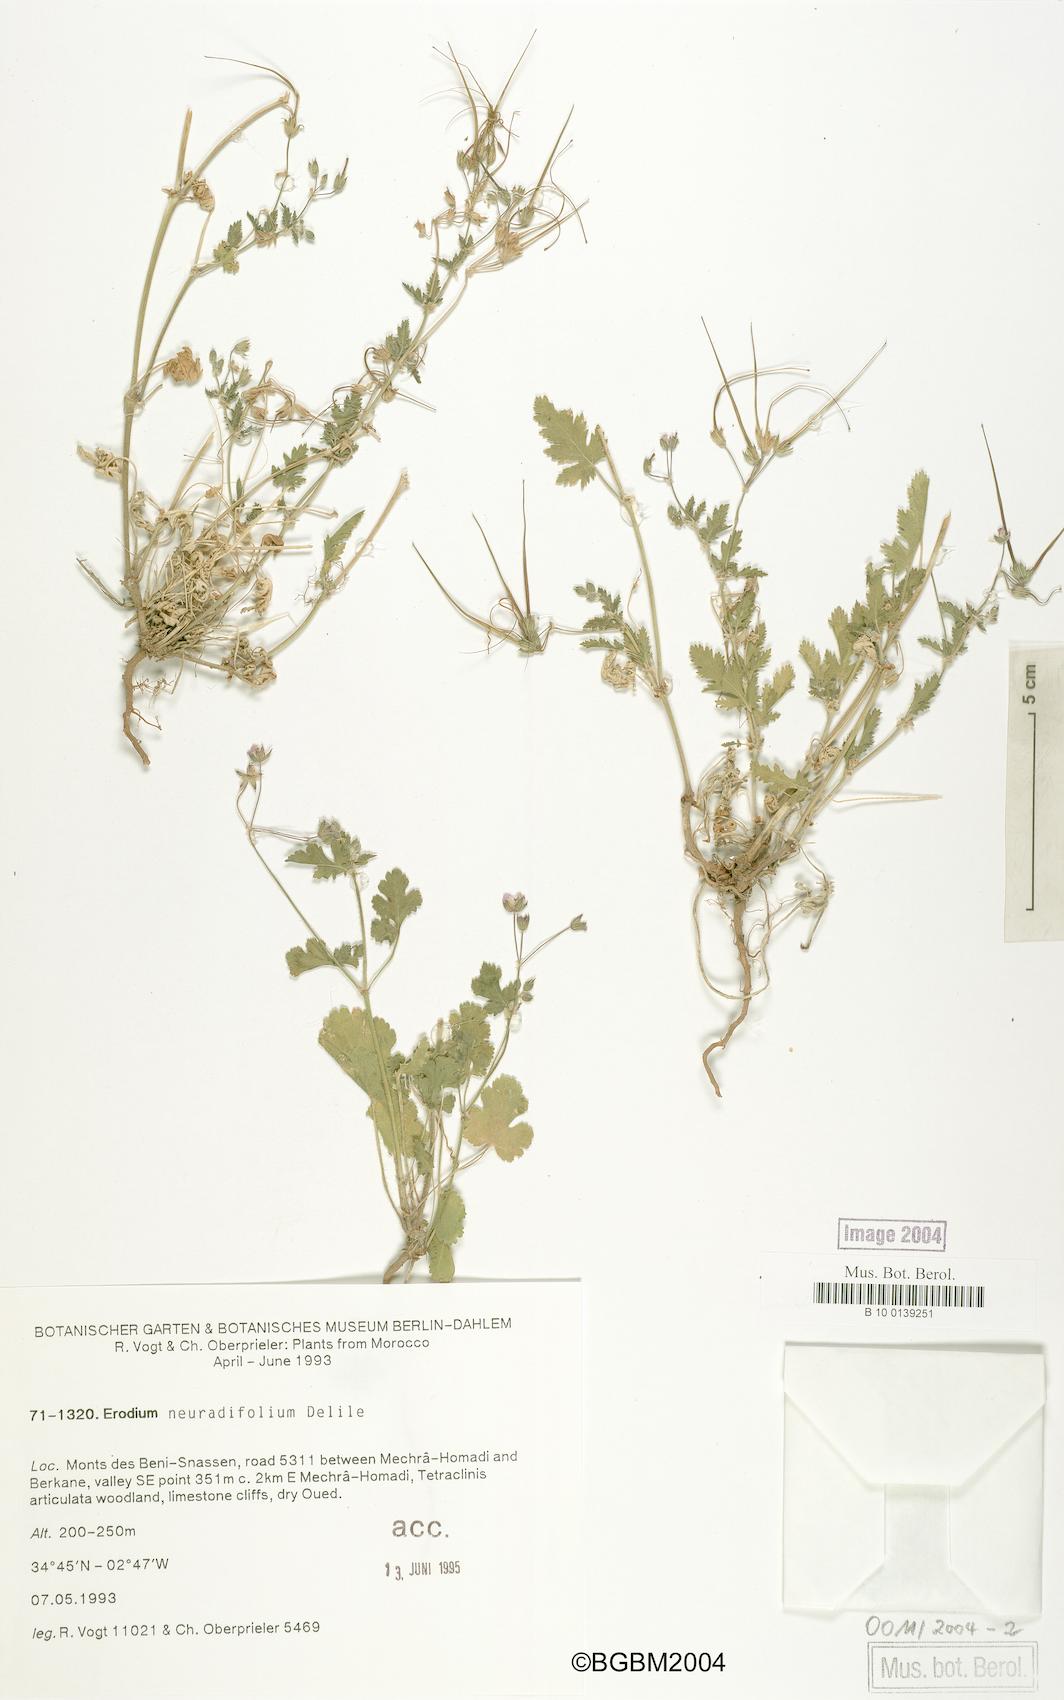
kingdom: Plantae
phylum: Tracheophyta
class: Magnoliopsida
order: Geraniales
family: Geraniaceae
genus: Erodium
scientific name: Erodium neuradifolium
